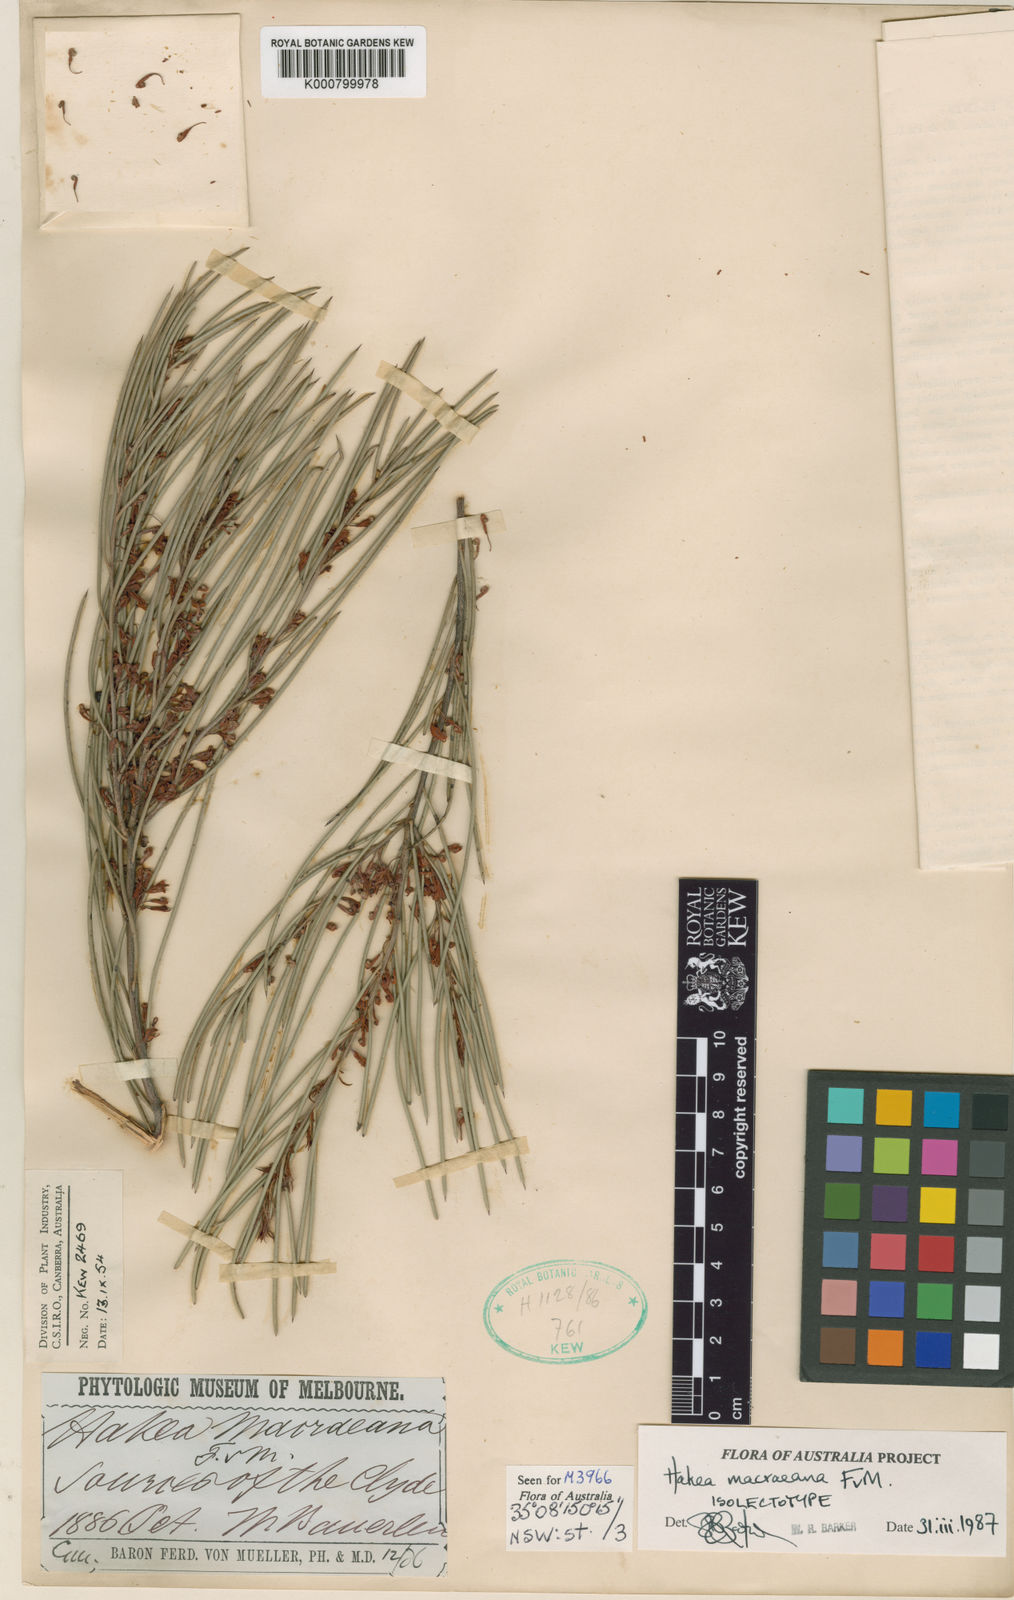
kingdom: Plantae
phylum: Tracheophyta
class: Magnoliopsida
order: Proteales
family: Proteaceae
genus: Hakea
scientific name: Hakea macraeana
